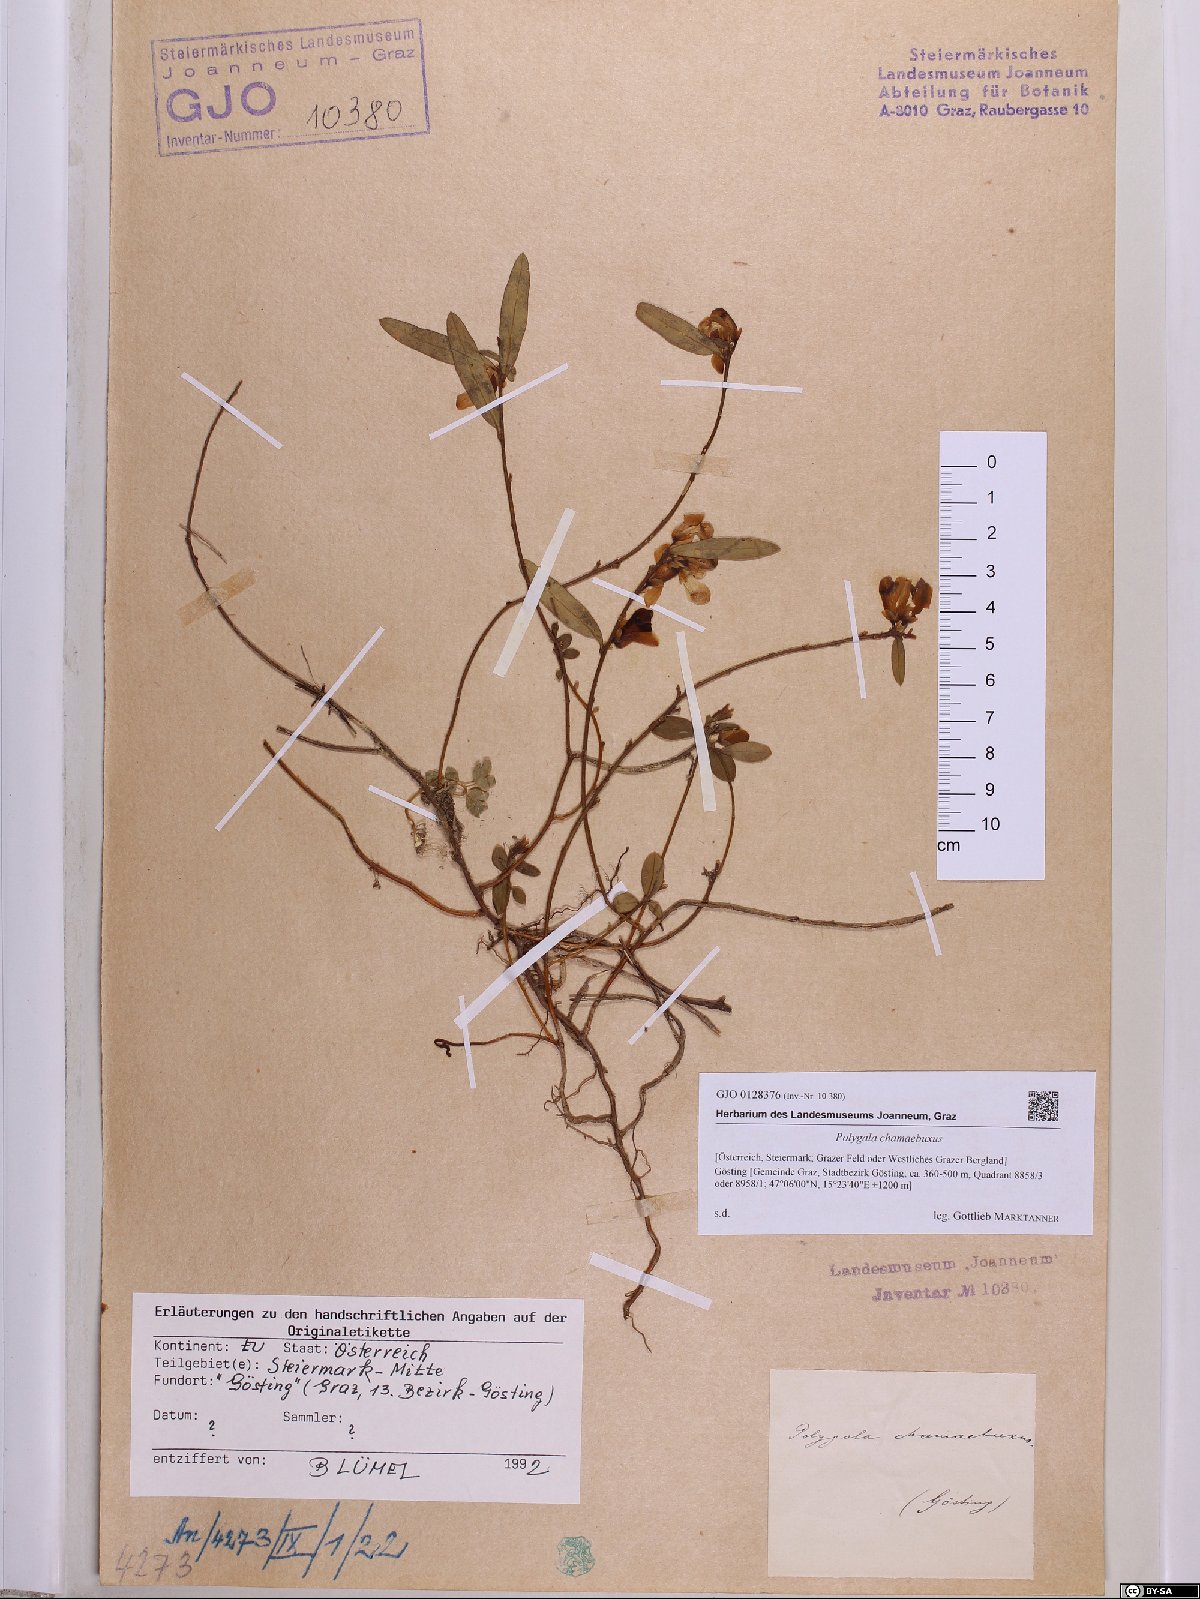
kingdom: Plantae
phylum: Tracheophyta
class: Magnoliopsida
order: Fabales
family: Polygalaceae
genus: Polygaloides
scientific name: Polygaloides chamaebuxus
